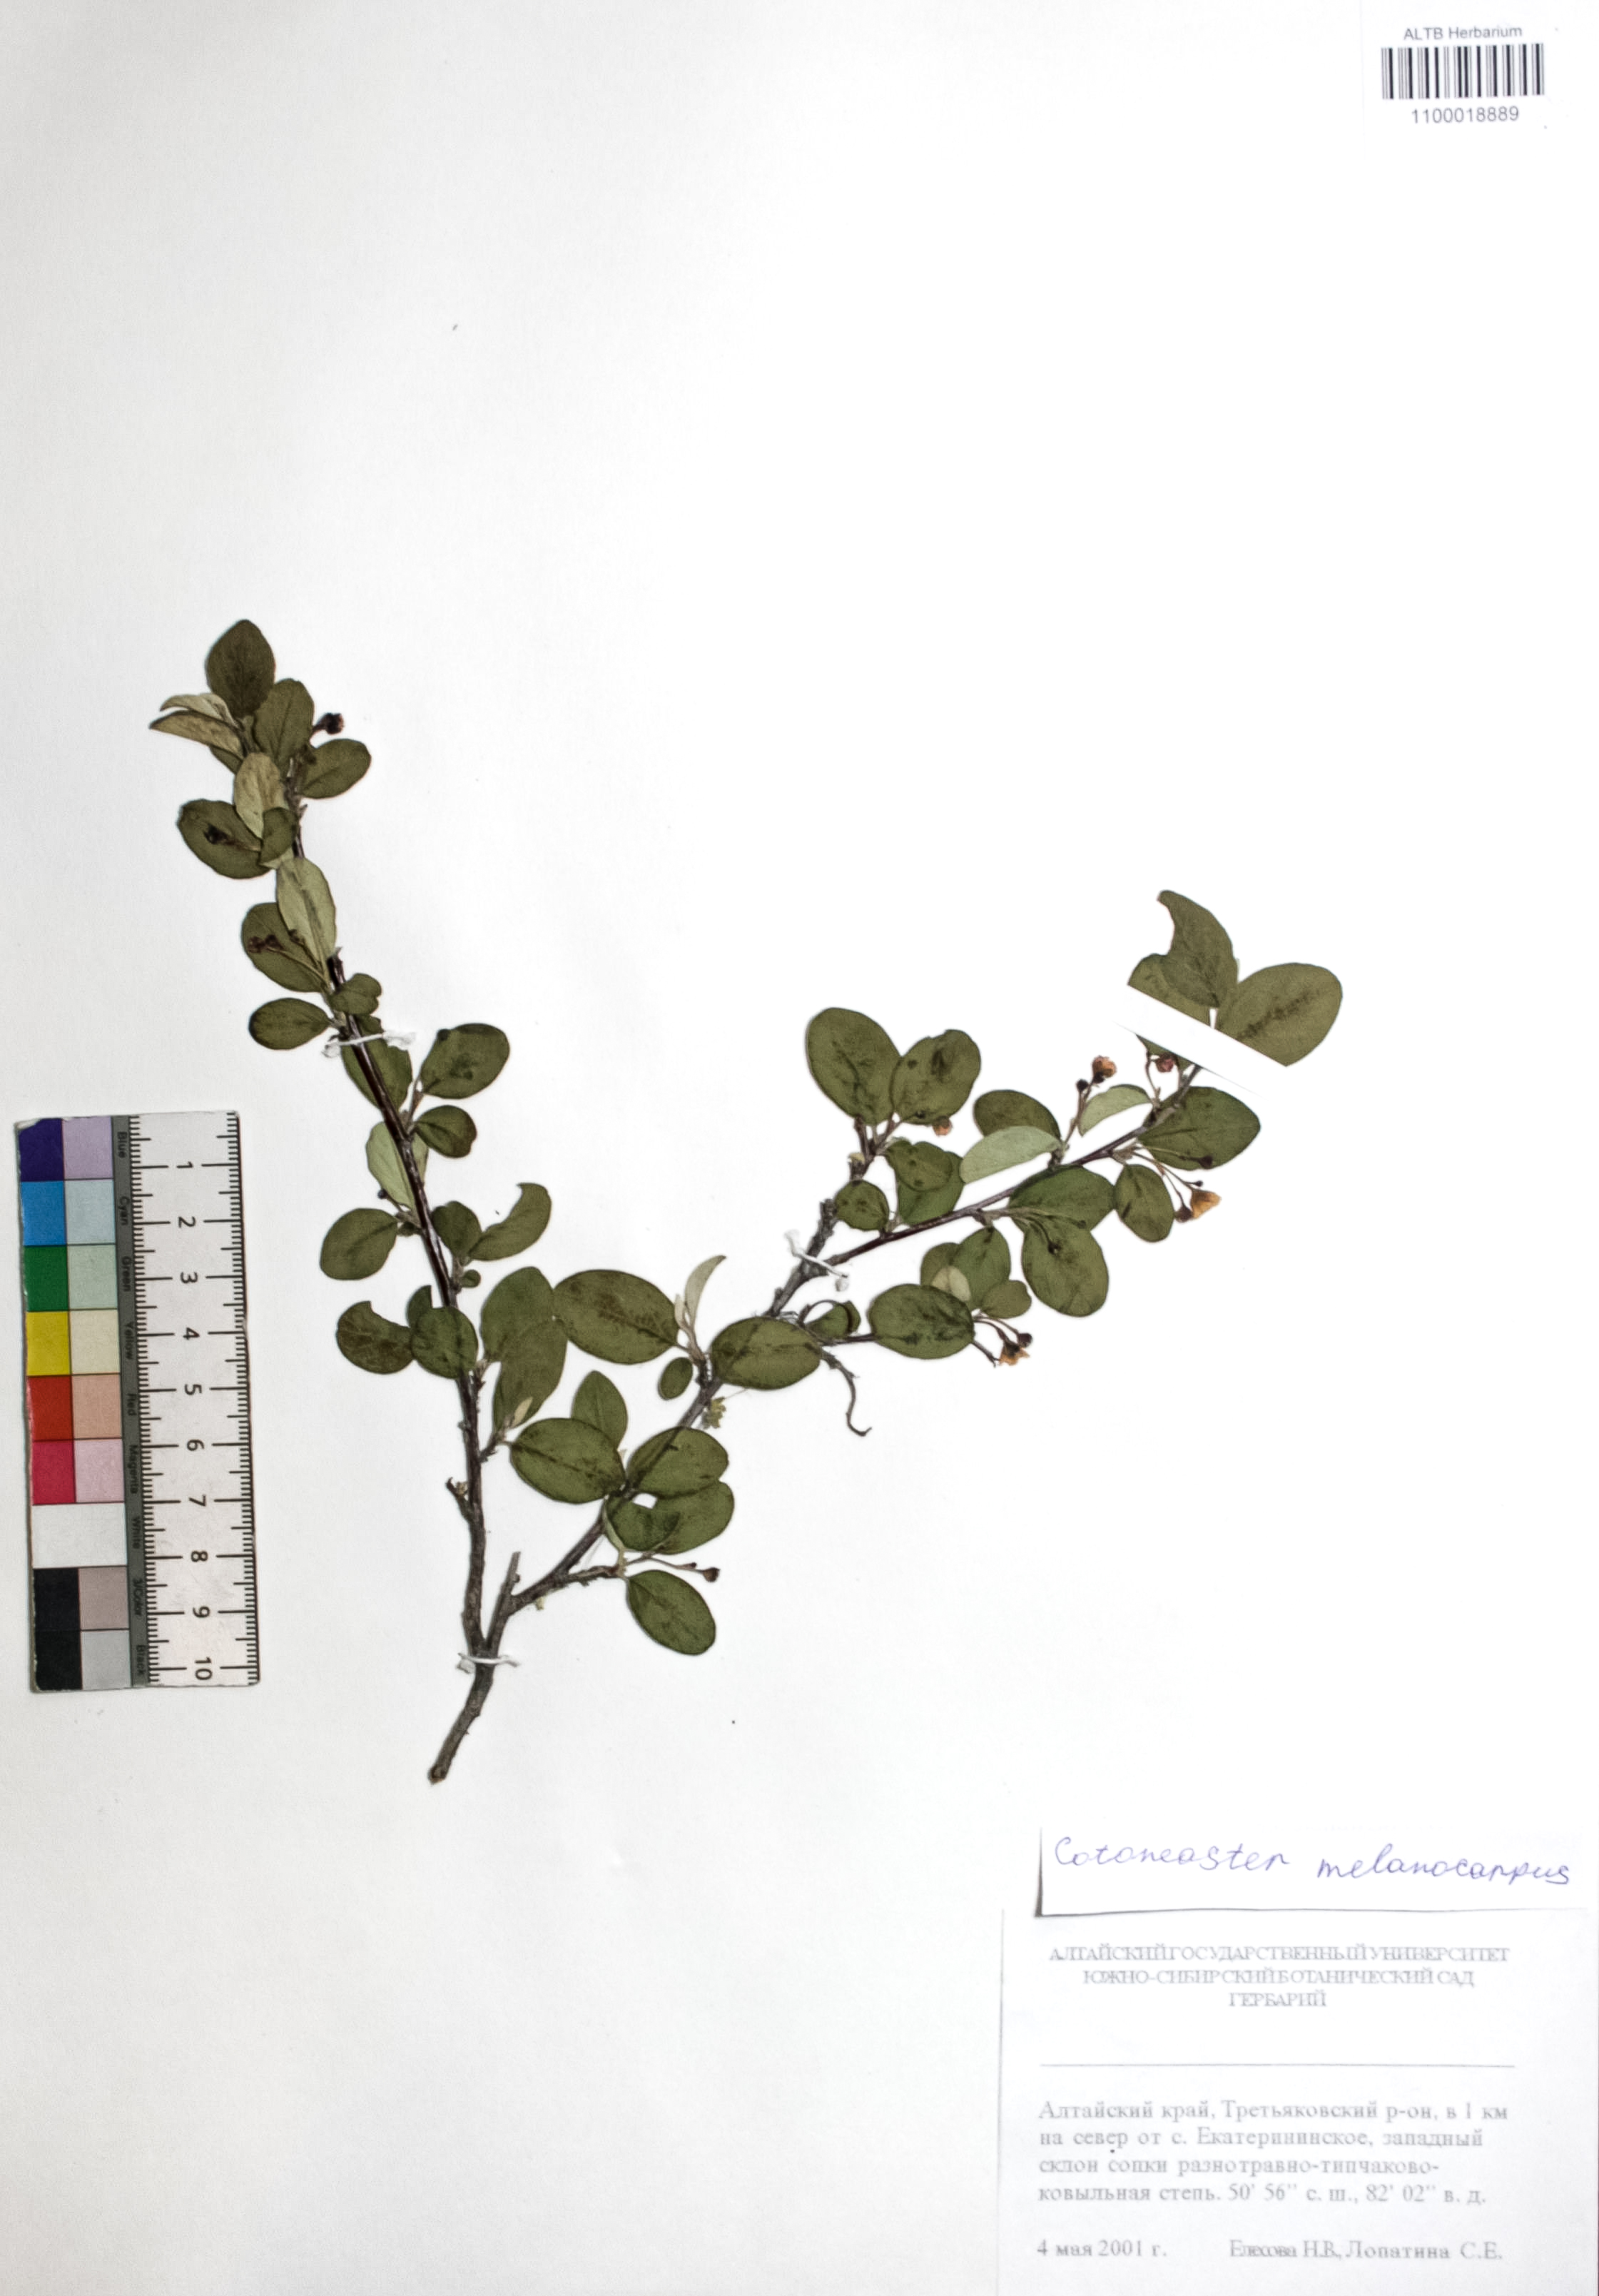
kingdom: Plantae
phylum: Tracheophyta
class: Magnoliopsida
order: Rosales
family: Rosaceae
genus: Cotoneaster
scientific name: Cotoneaster niger
